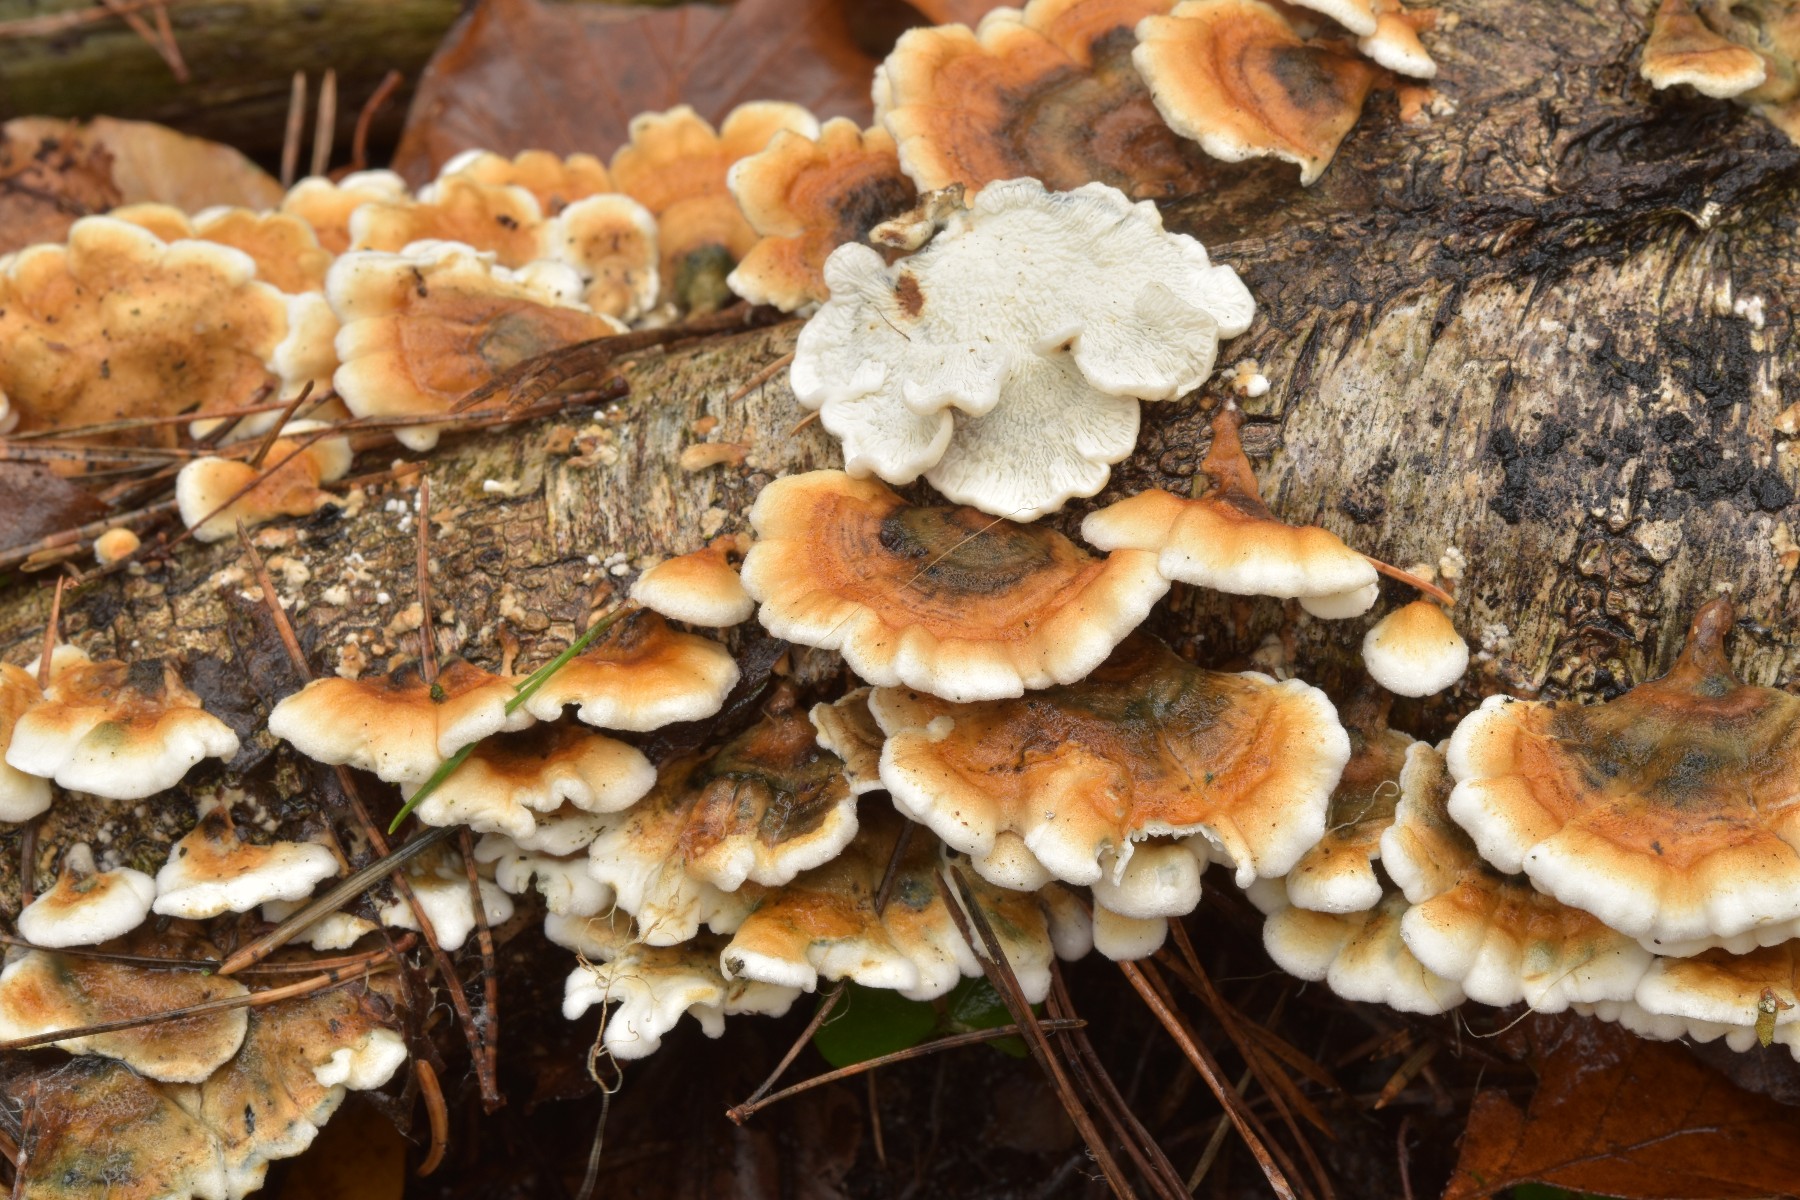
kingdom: Fungi
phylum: Basidiomycota
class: Agaricomycetes
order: Amylocorticiales
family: Amylocorticiaceae
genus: Plicaturopsis
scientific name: Plicaturopsis crispa
